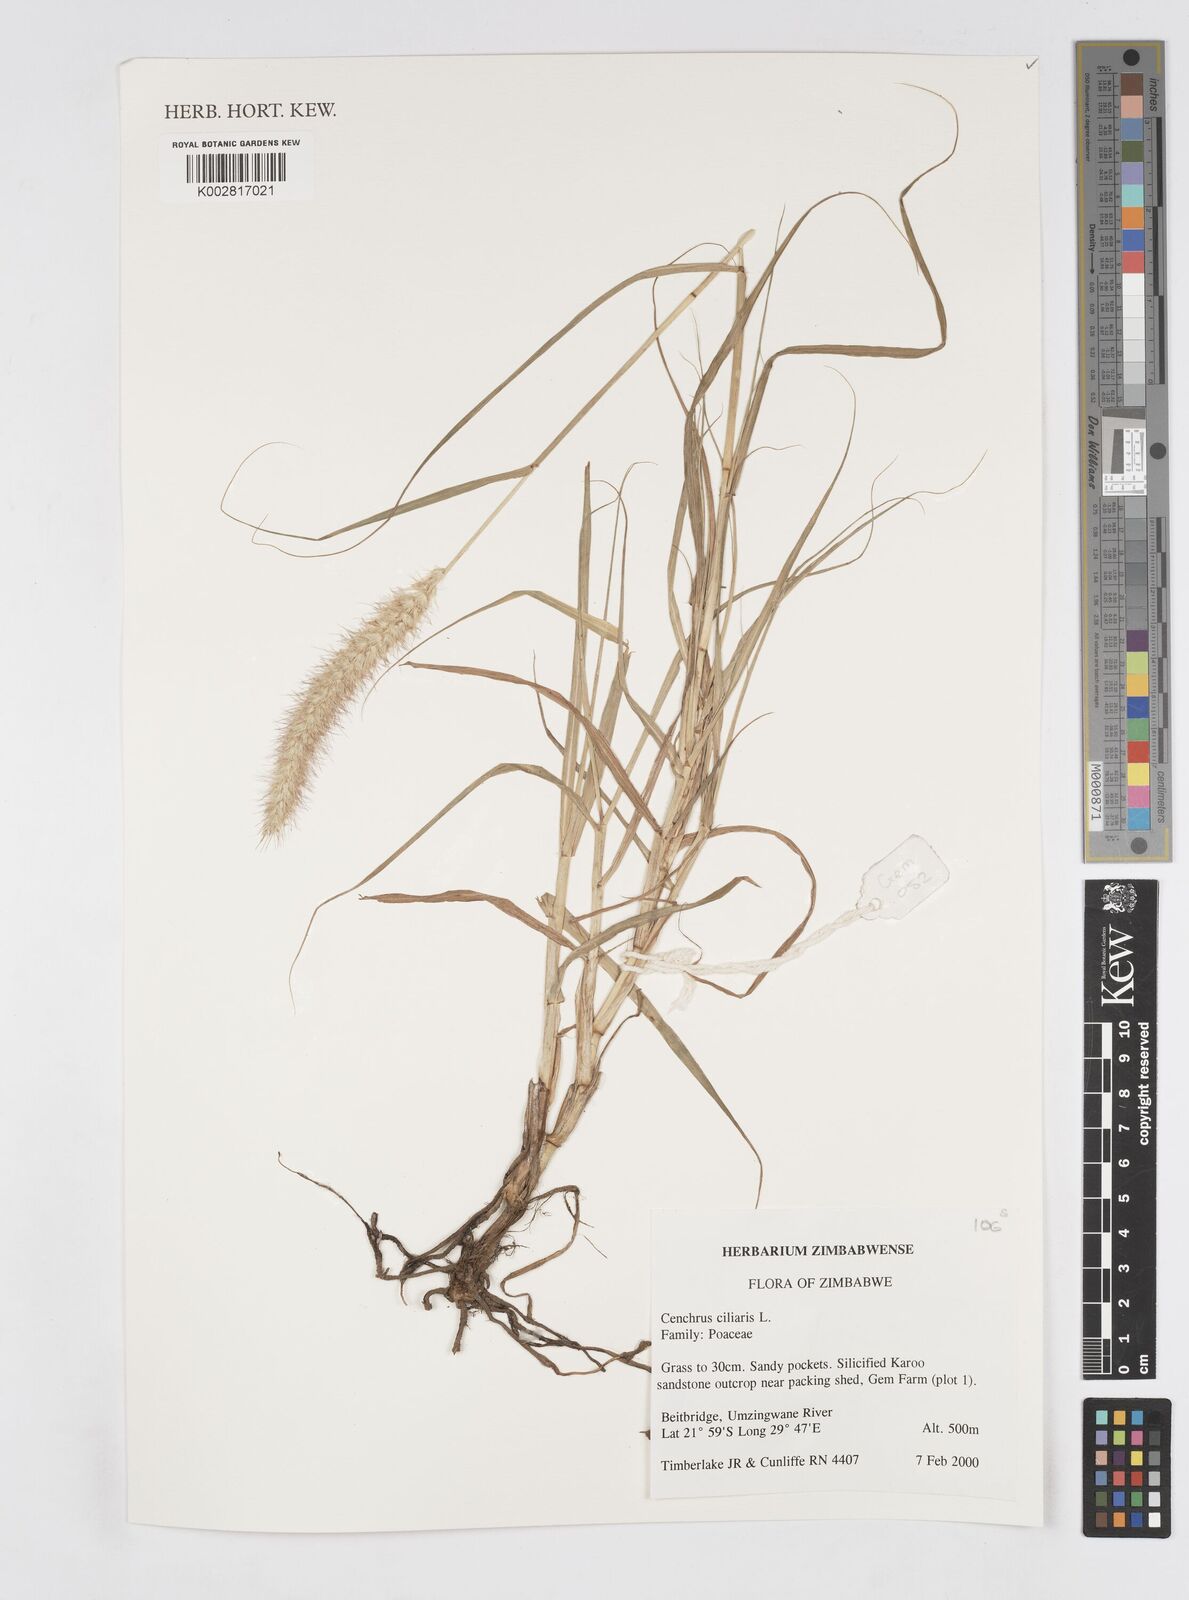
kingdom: Plantae
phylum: Tracheophyta
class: Liliopsida
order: Poales
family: Poaceae
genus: Cenchrus
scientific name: Cenchrus ciliaris
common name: Buffelgrass
